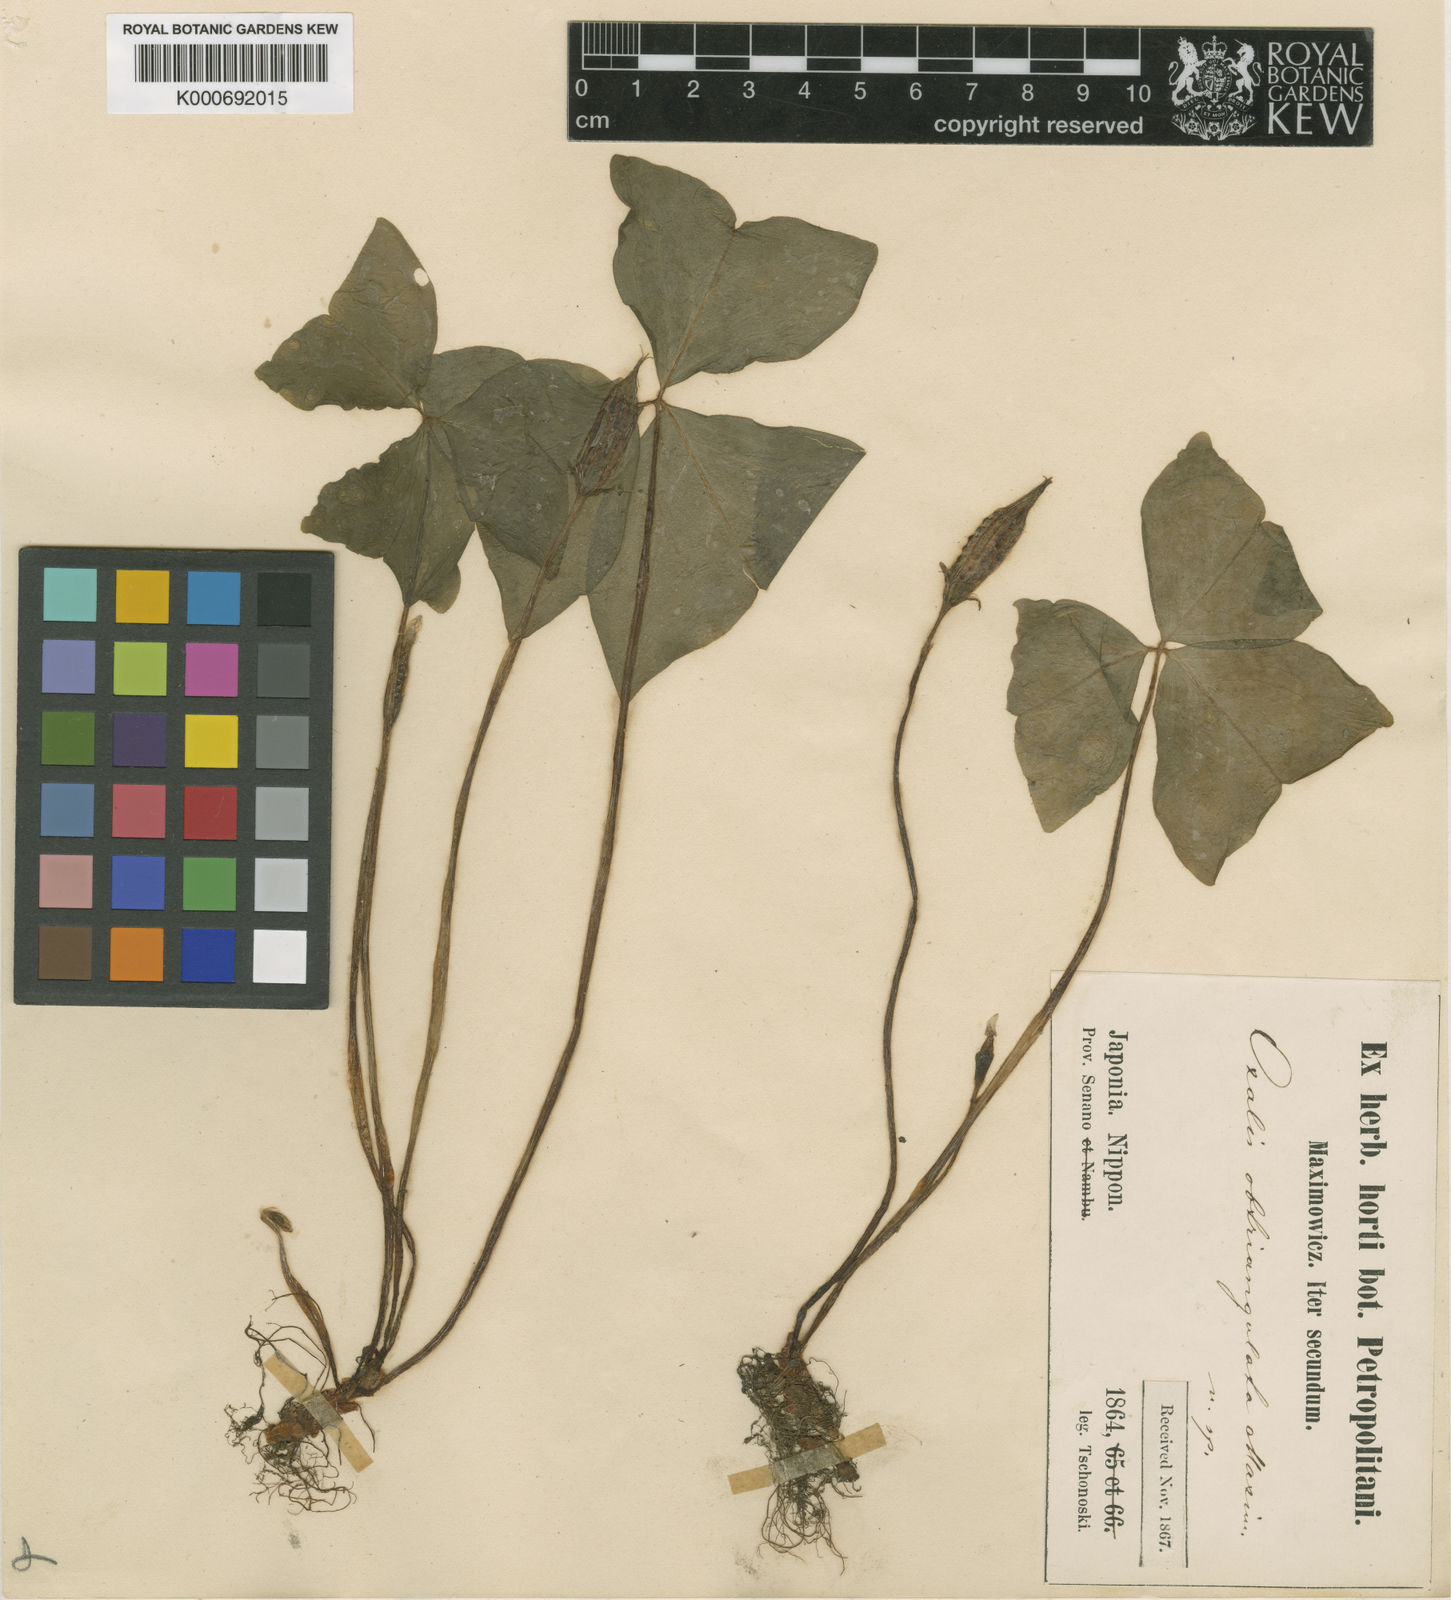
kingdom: Plantae
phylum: Tracheophyta
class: Magnoliopsida
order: Oxalidales
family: Oxalidaceae
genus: Oxalis
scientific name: Oxalis obtriangulata
